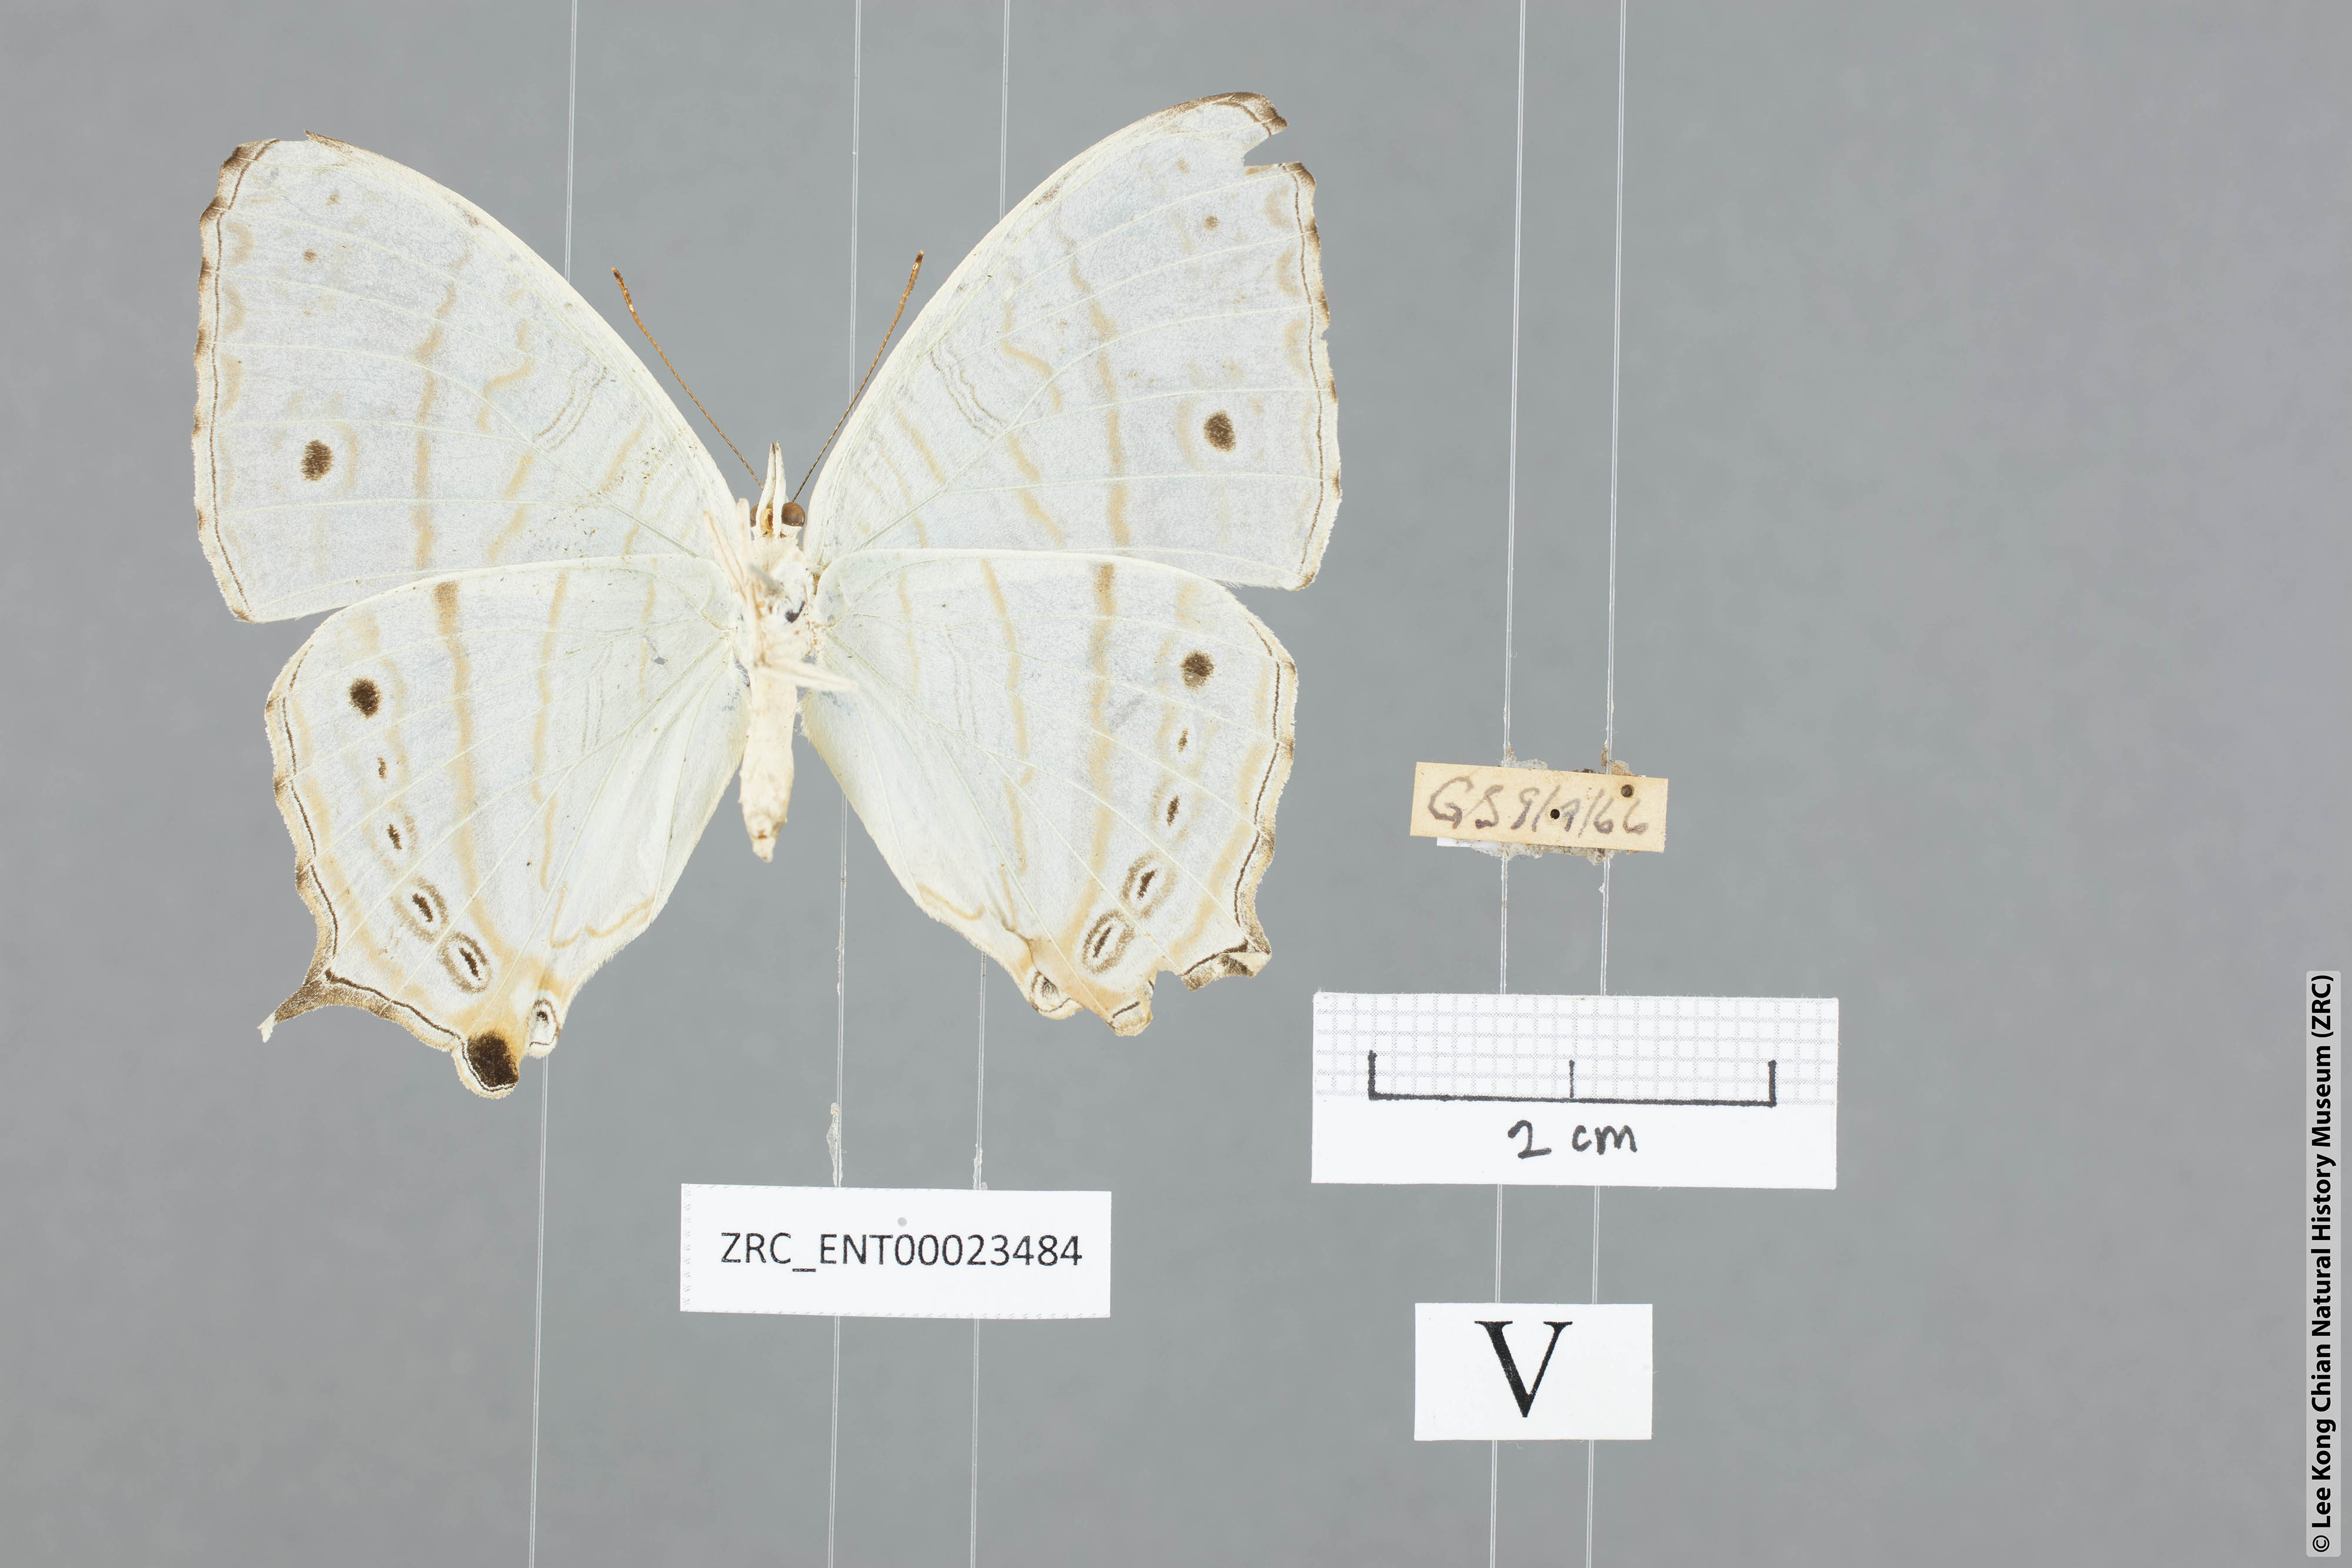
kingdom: Animalia
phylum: Arthropoda
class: Insecta
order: Lepidoptera
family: Nymphalidae
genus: Cyrestis
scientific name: Cyrestis cocles
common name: Marbled map
